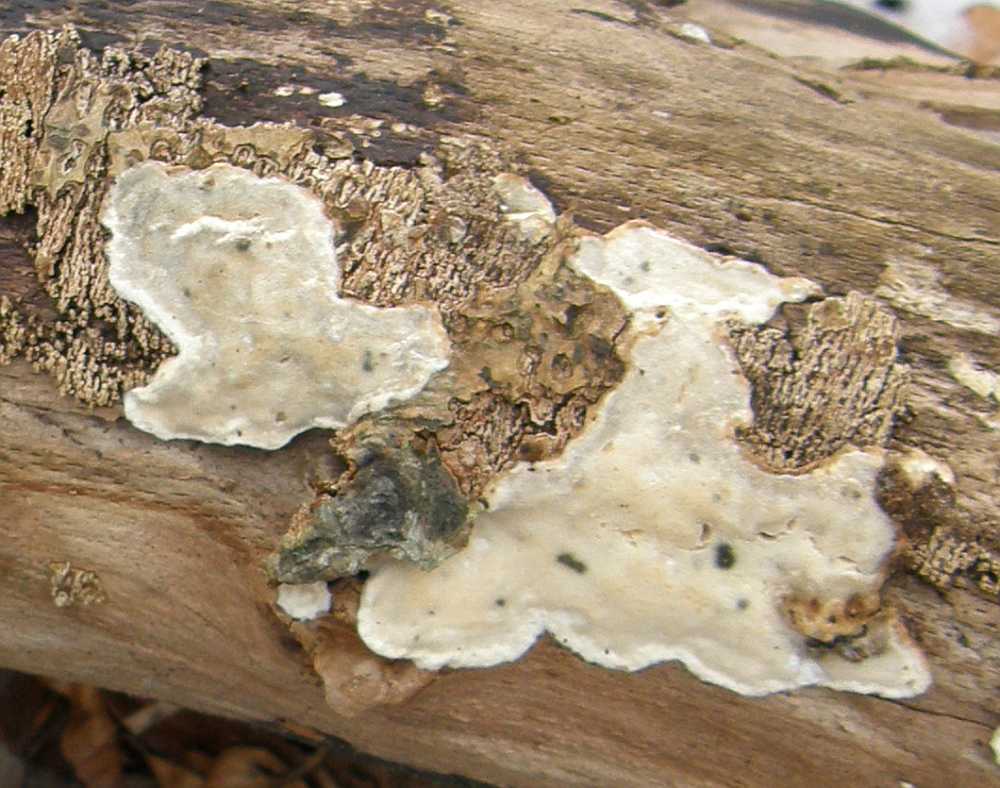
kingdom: Fungi
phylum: Basidiomycota
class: Agaricomycetes
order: Polyporales
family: Incrustoporiaceae
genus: Skeletocutis
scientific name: Skeletocutis nemoralis
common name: stor krystalporesvamp
